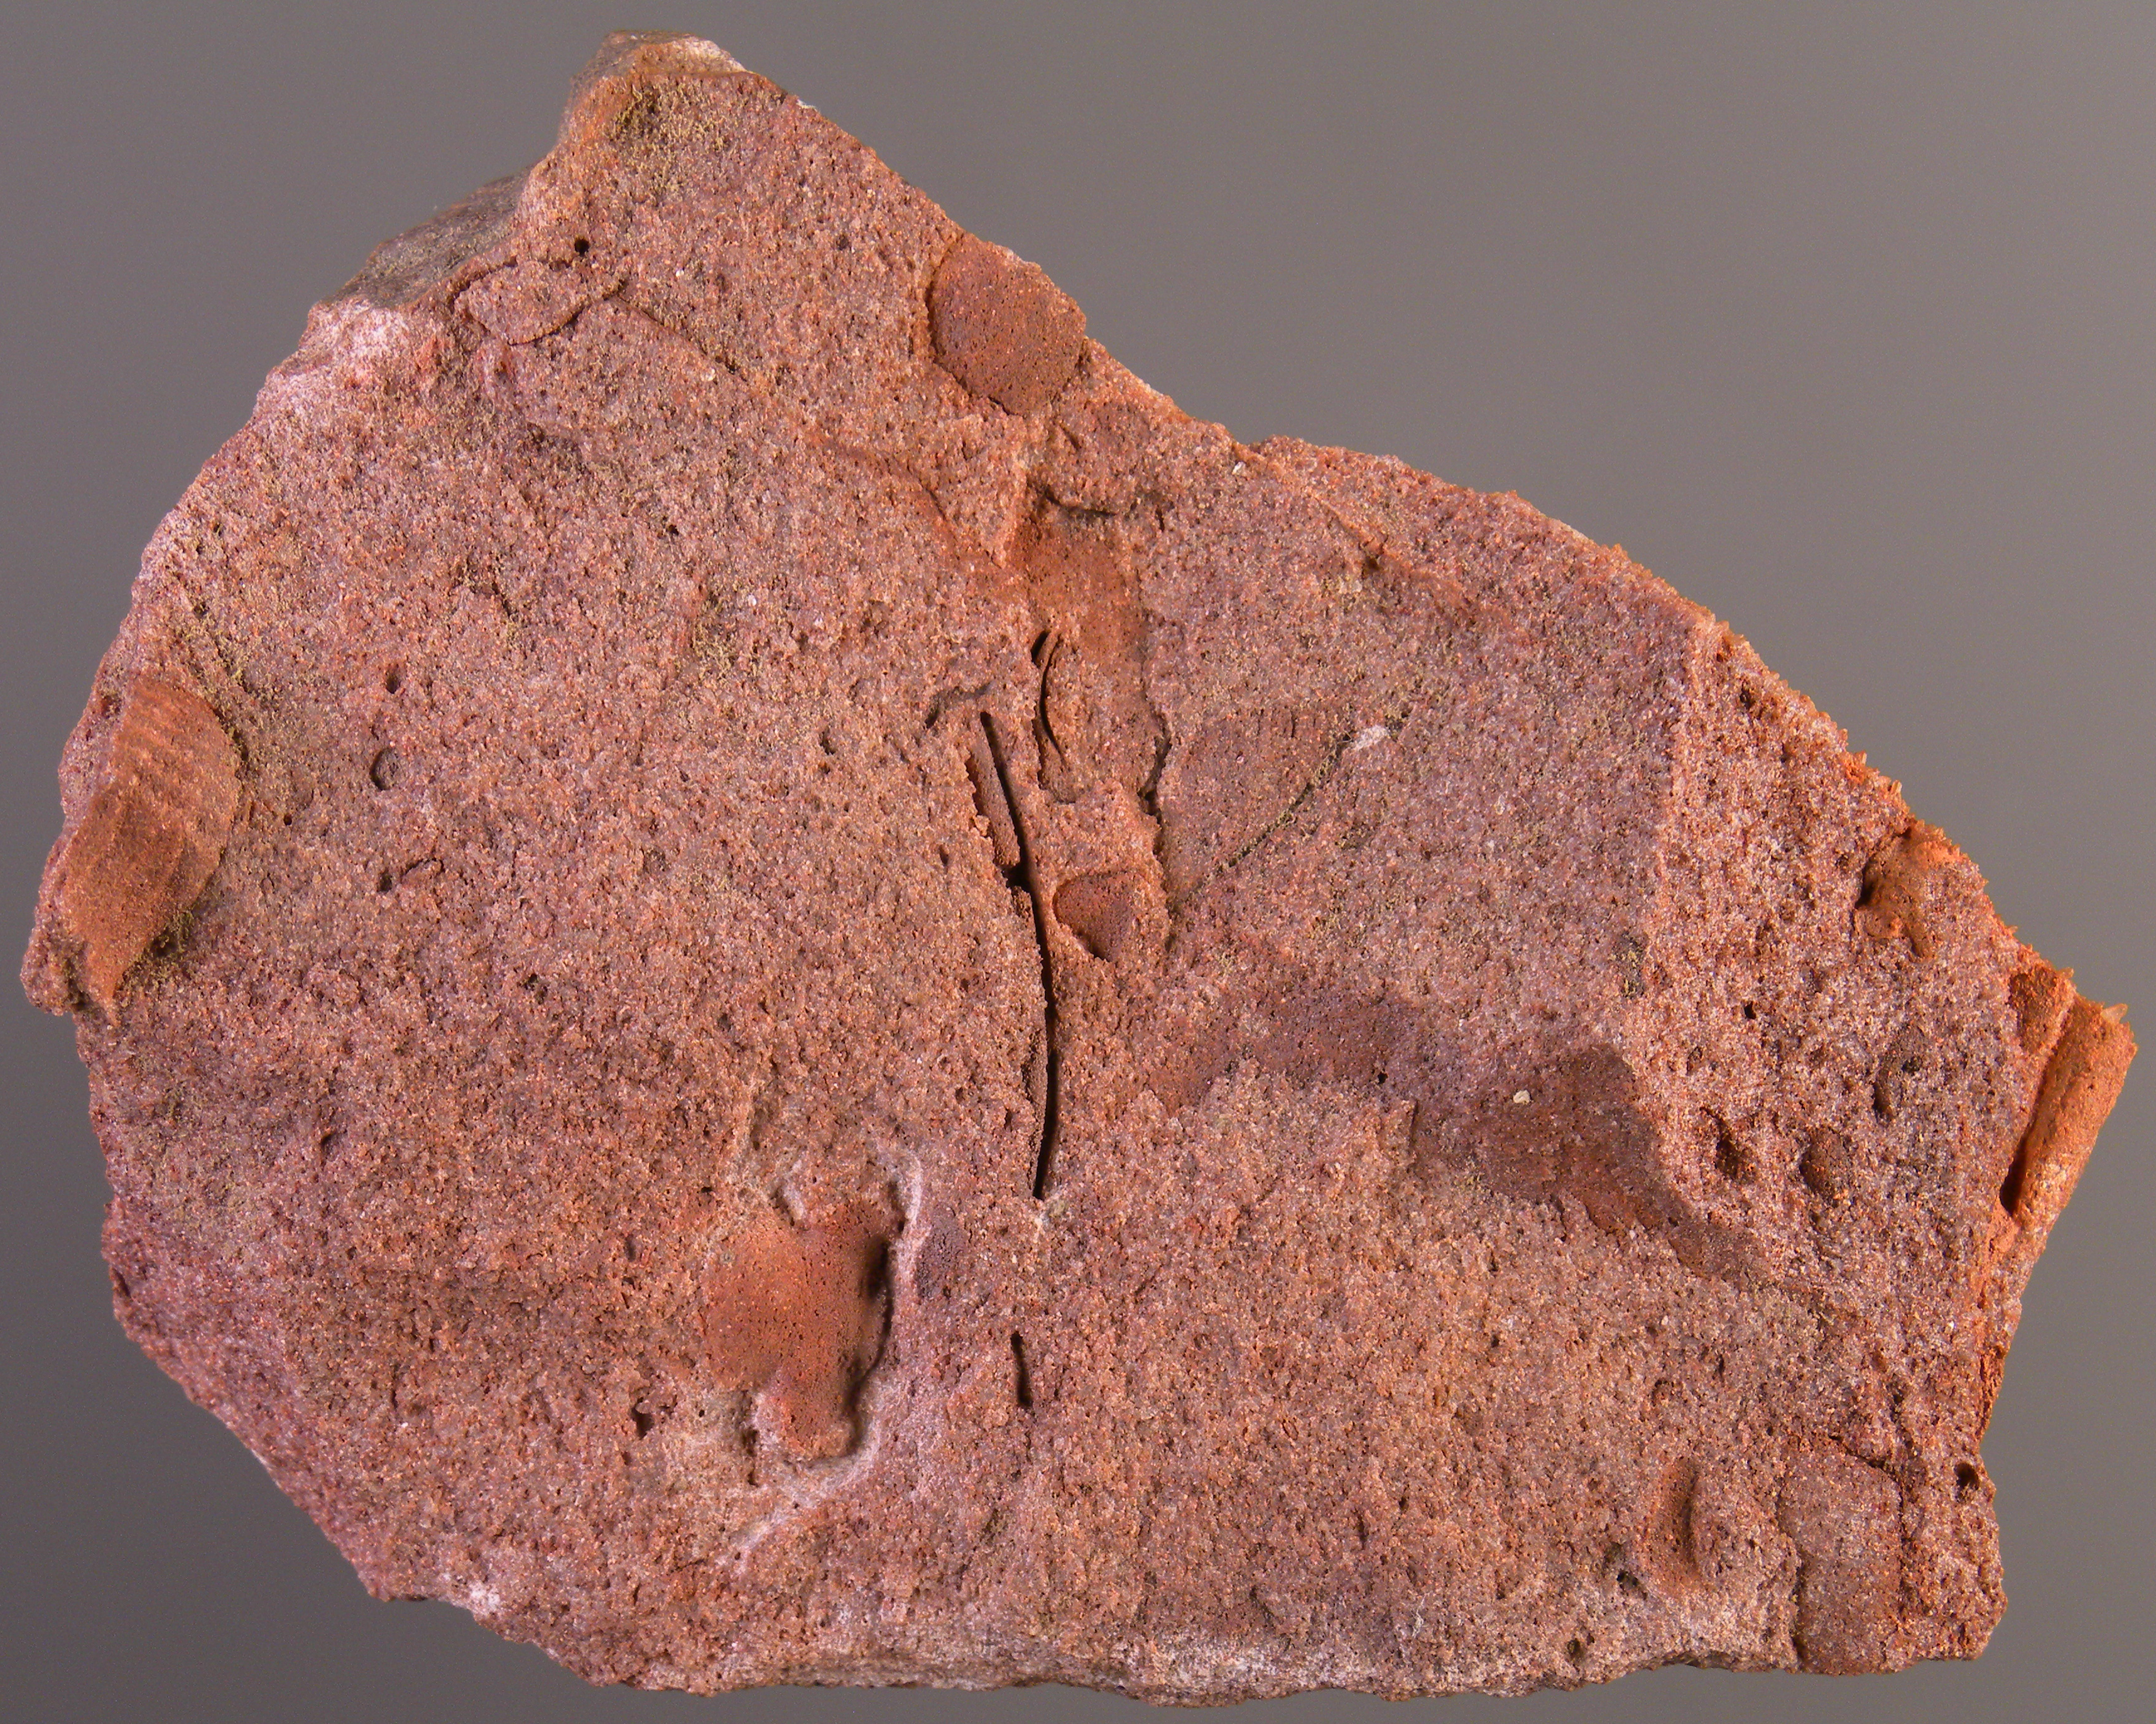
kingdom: Animalia
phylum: Arthropoda
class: Trilobita
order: Phacopida
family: Acastidae
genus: Acastava
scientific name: Acastava
